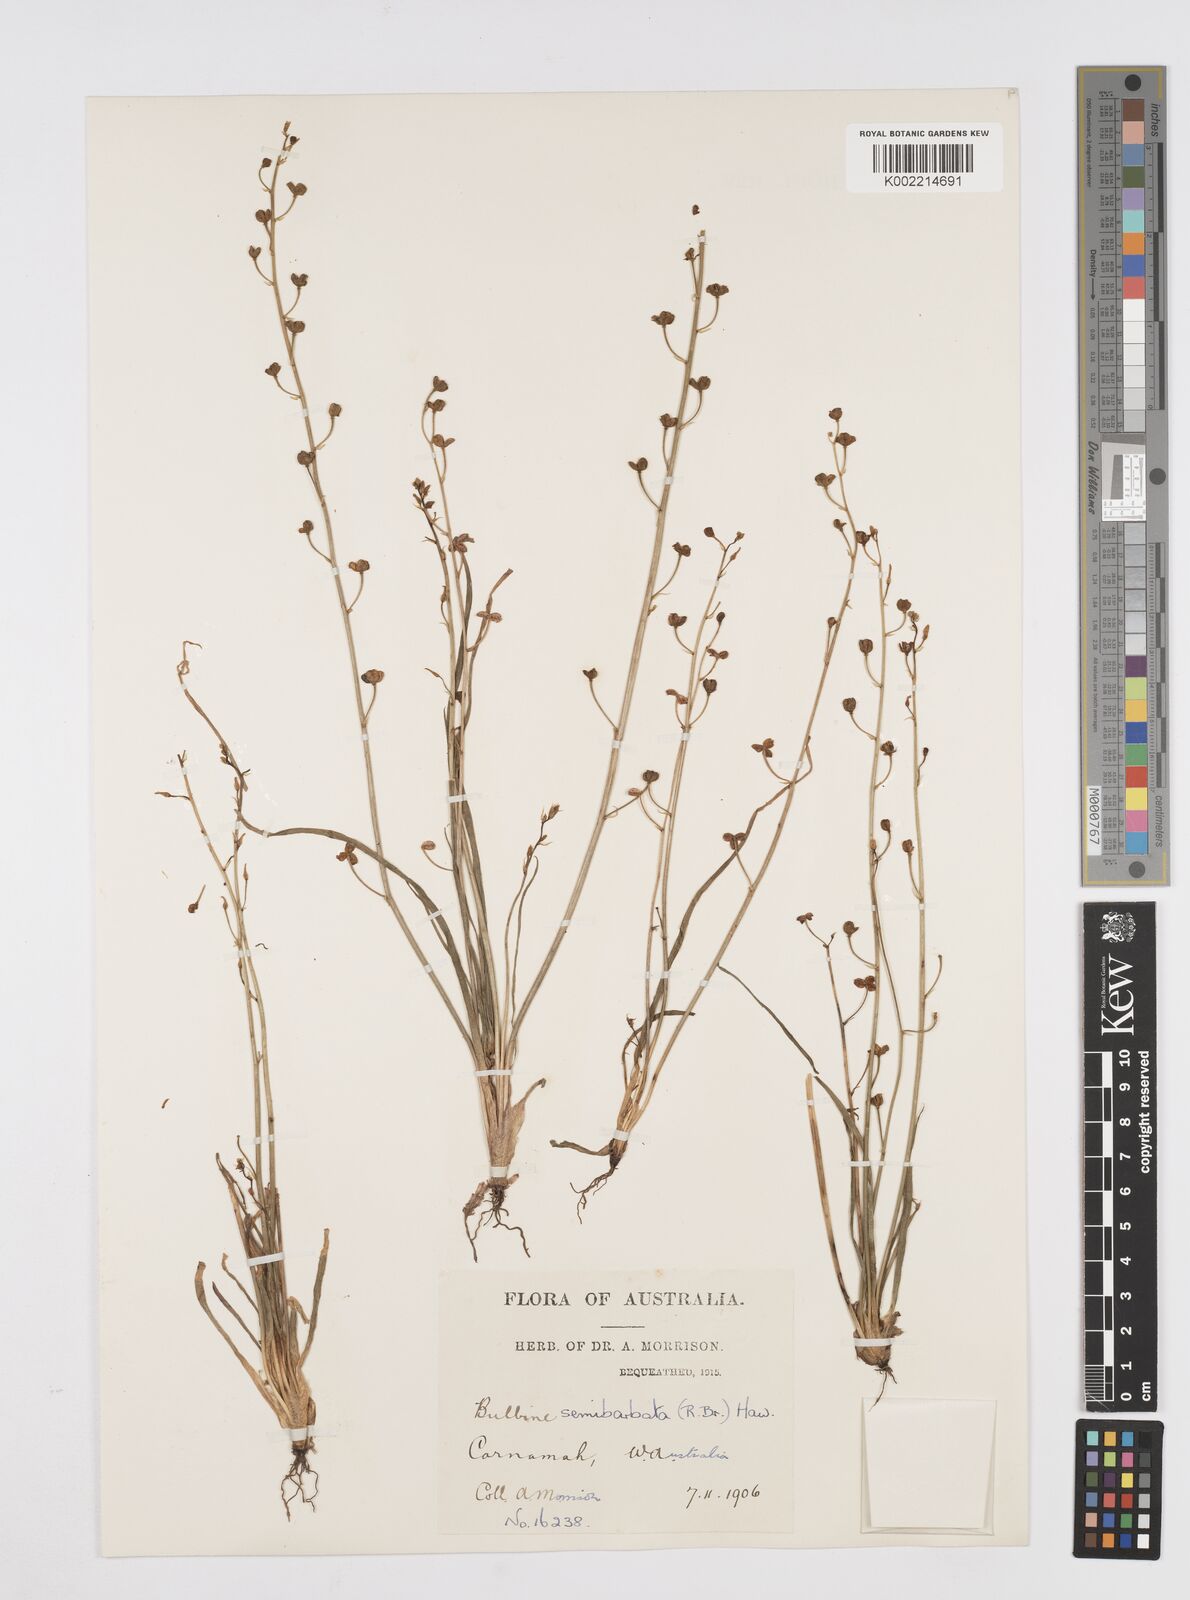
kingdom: Plantae
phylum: Tracheophyta
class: Liliopsida
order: Asparagales
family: Asphodelaceae
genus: Bulbine
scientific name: Bulbine semibarbata
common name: Leek lily
